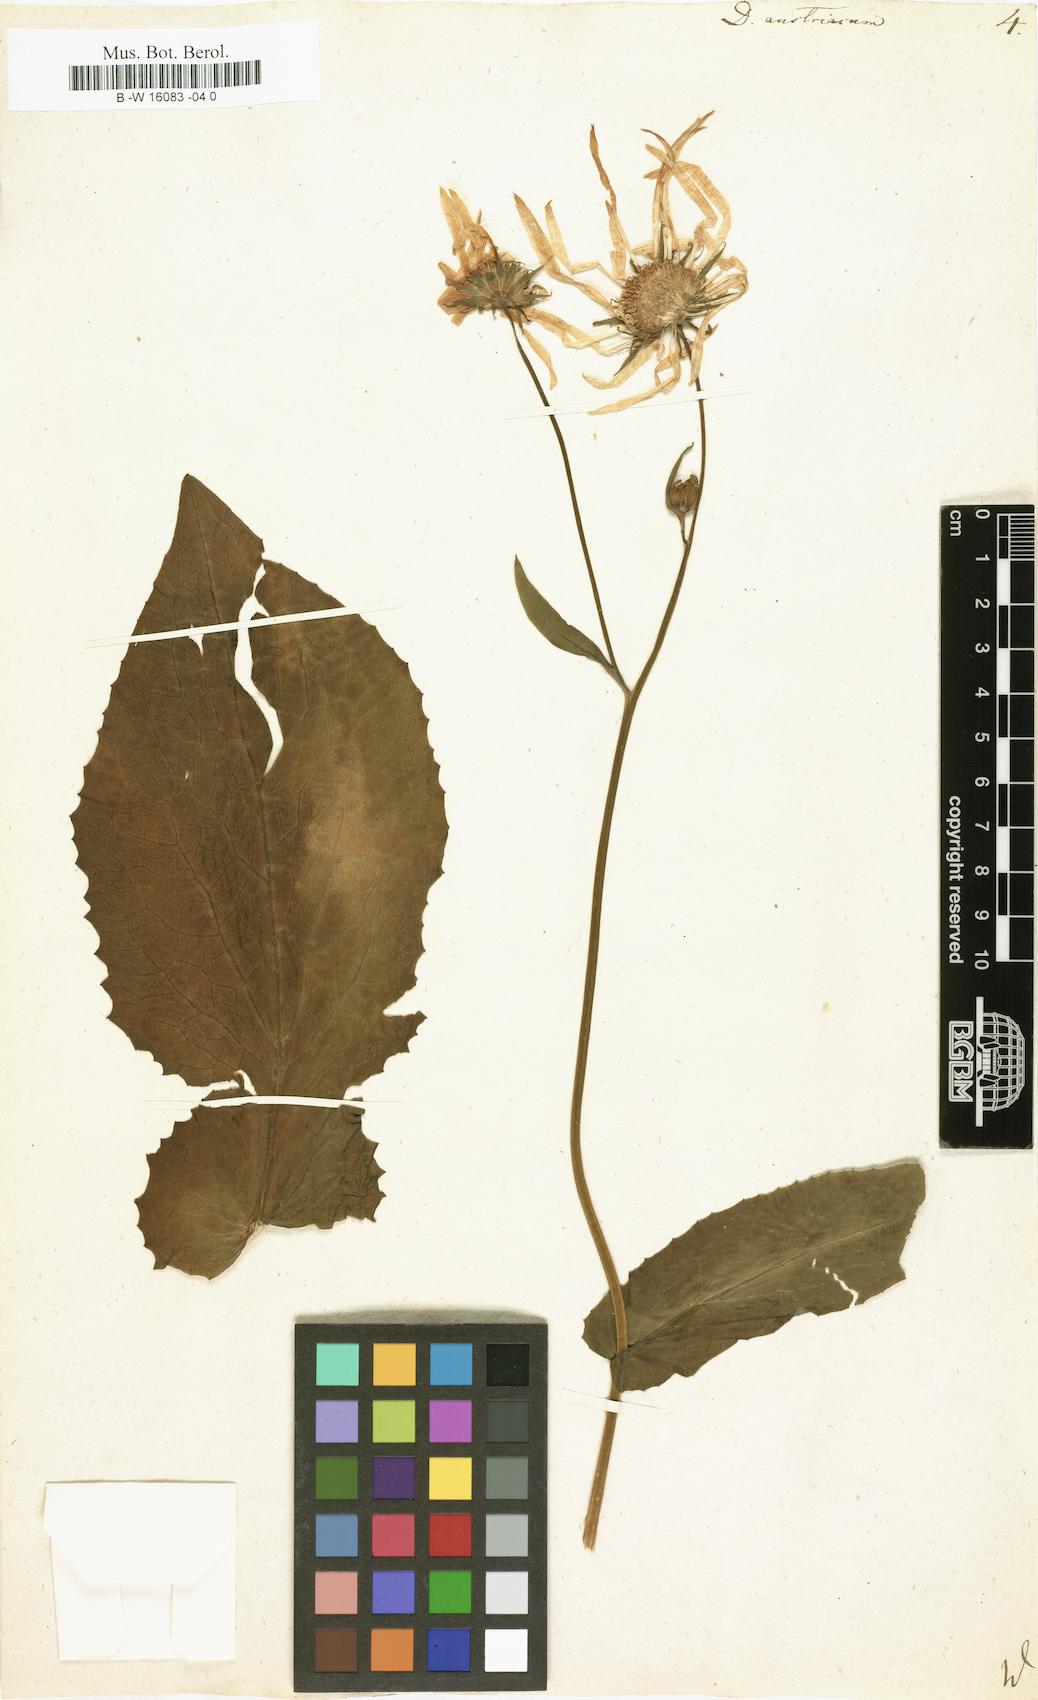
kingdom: Plantae
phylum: Tracheophyta
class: Magnoliopsida
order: Asterales
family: Asteraceae
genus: Doronicum
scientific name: Doronicum austriacum
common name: Austrian leopard's-bane
